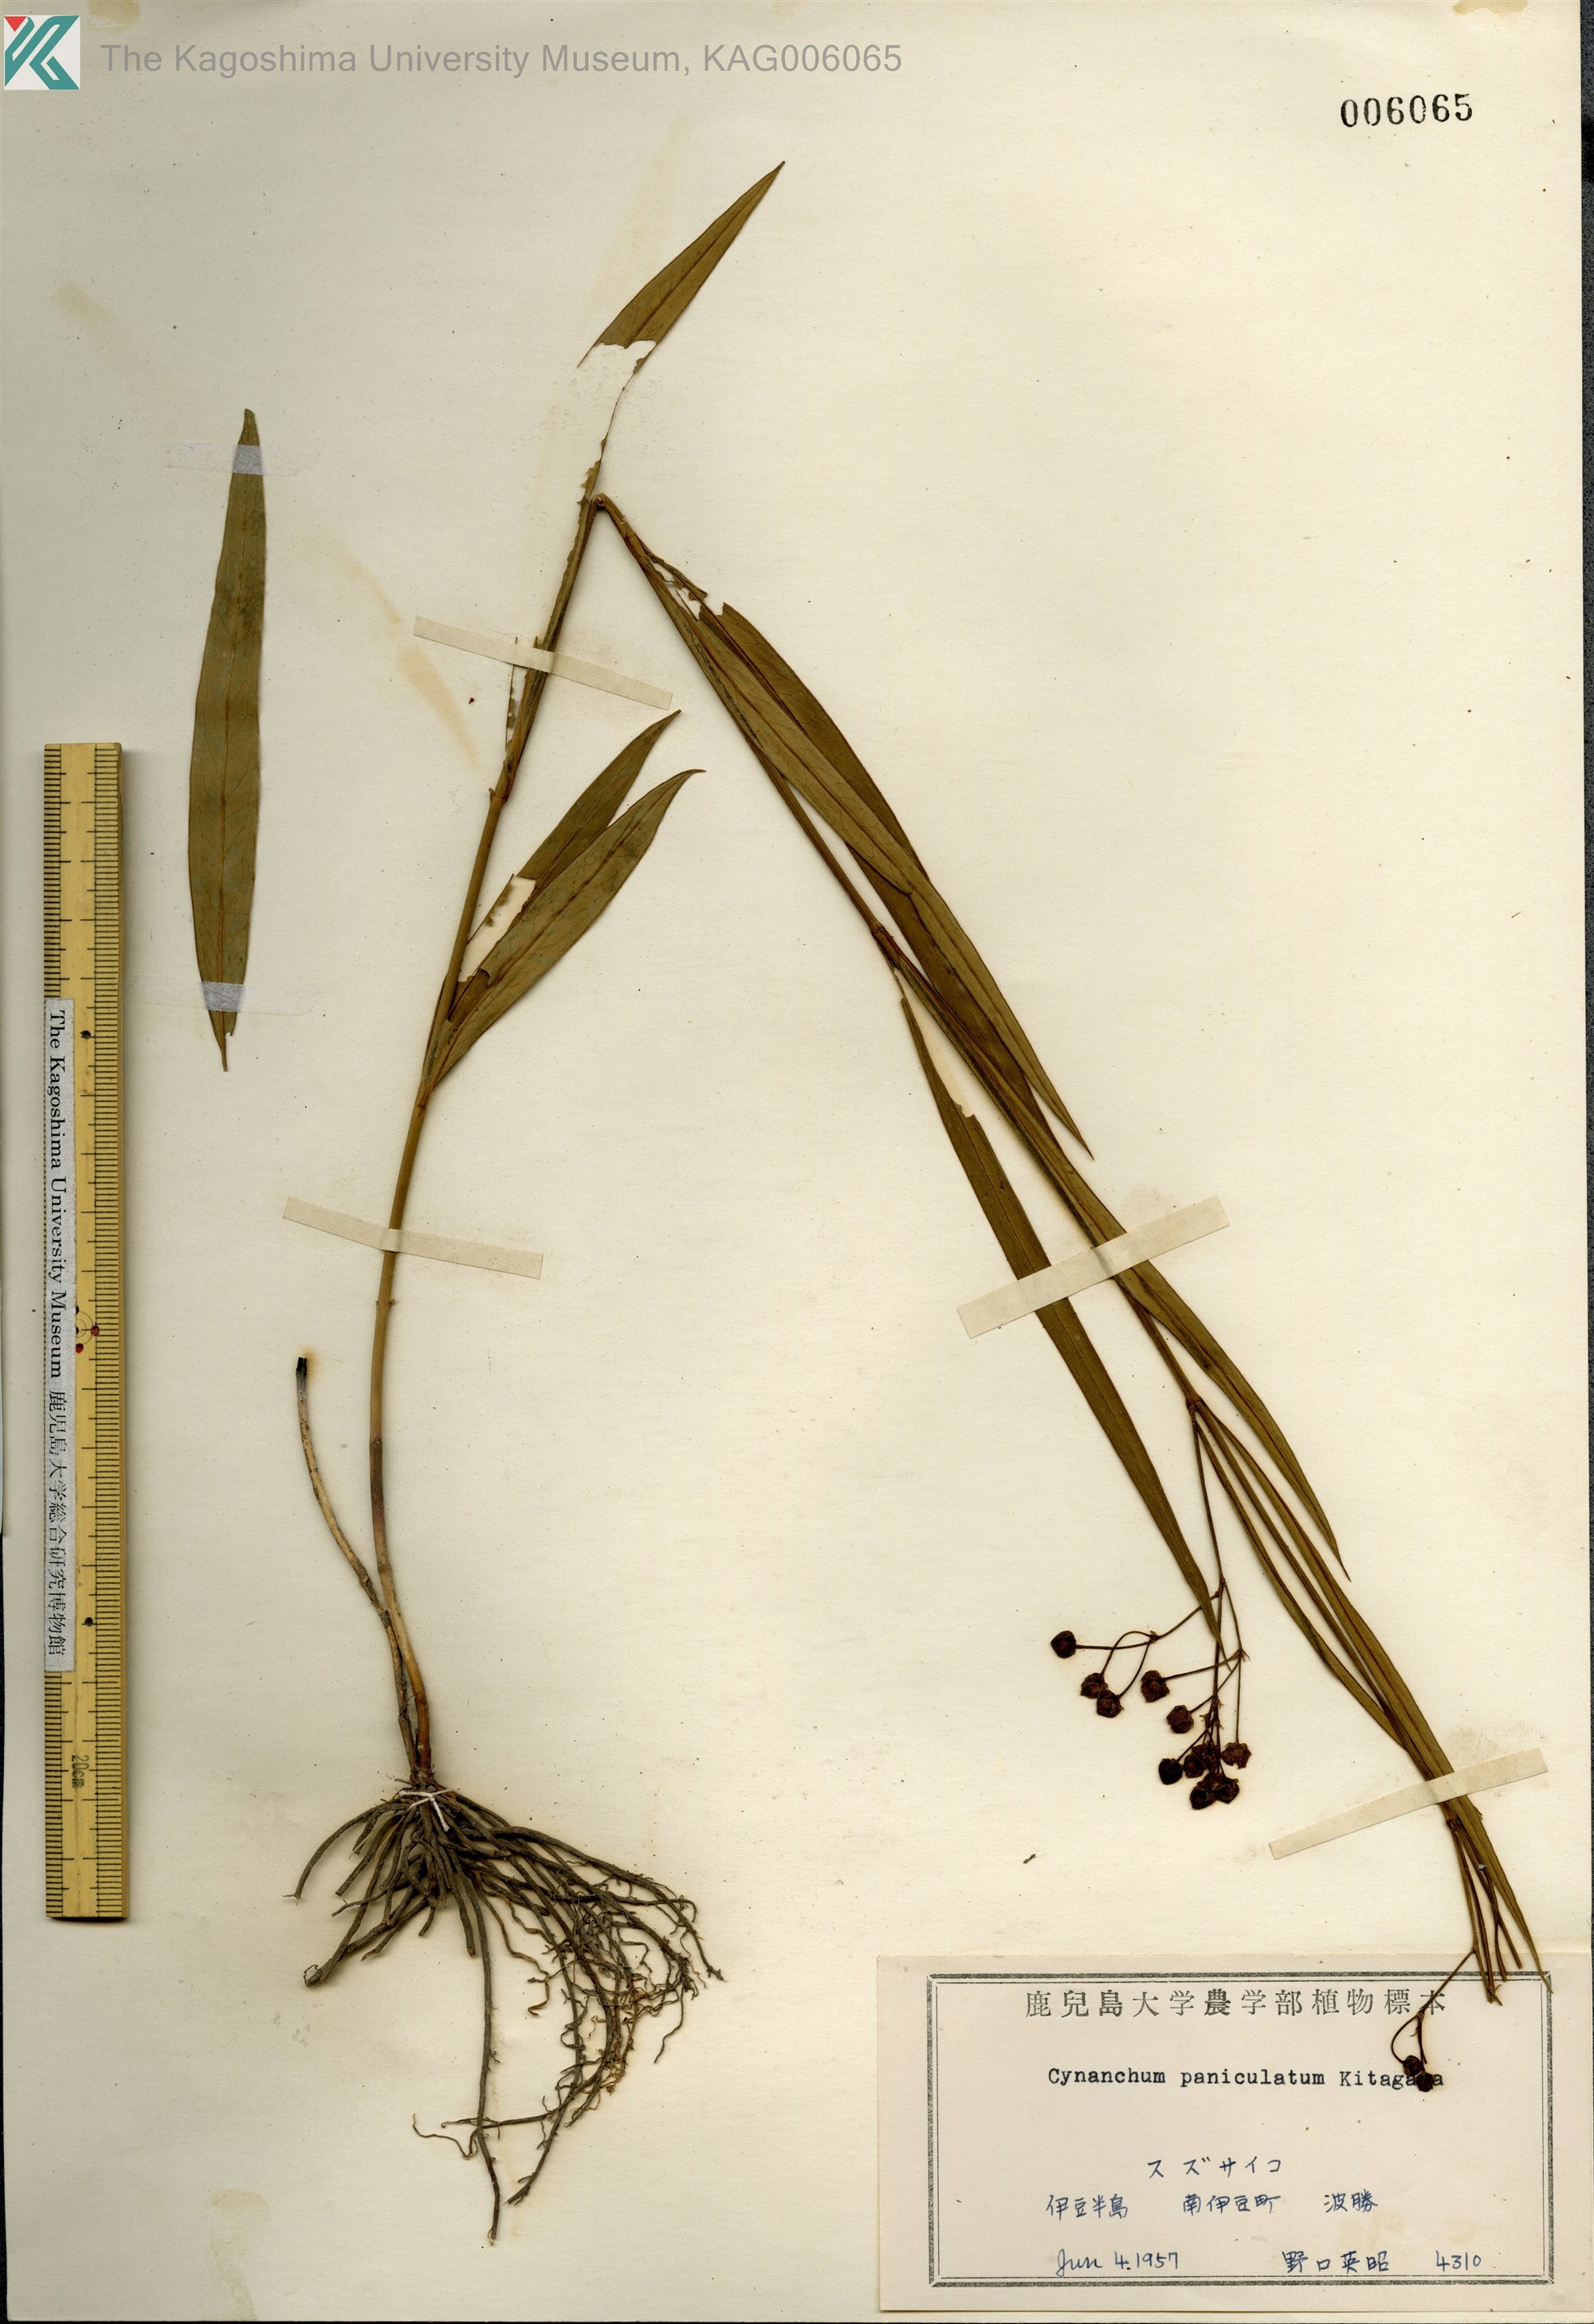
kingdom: Plantae
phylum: Tracheophyta
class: Magnoliopsida
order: Gentianales
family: Apocynaceae
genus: Vincetoxicum
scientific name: Vincetoxicum mukdenense
